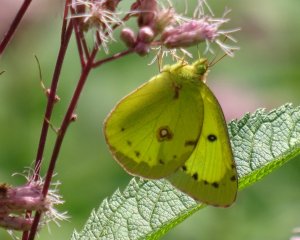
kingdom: Animalia
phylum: Arthropoda
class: Insecta
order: Lepidoptera
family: Pieridae
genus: Colias
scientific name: Colias philodice
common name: Clouded Sulphur
